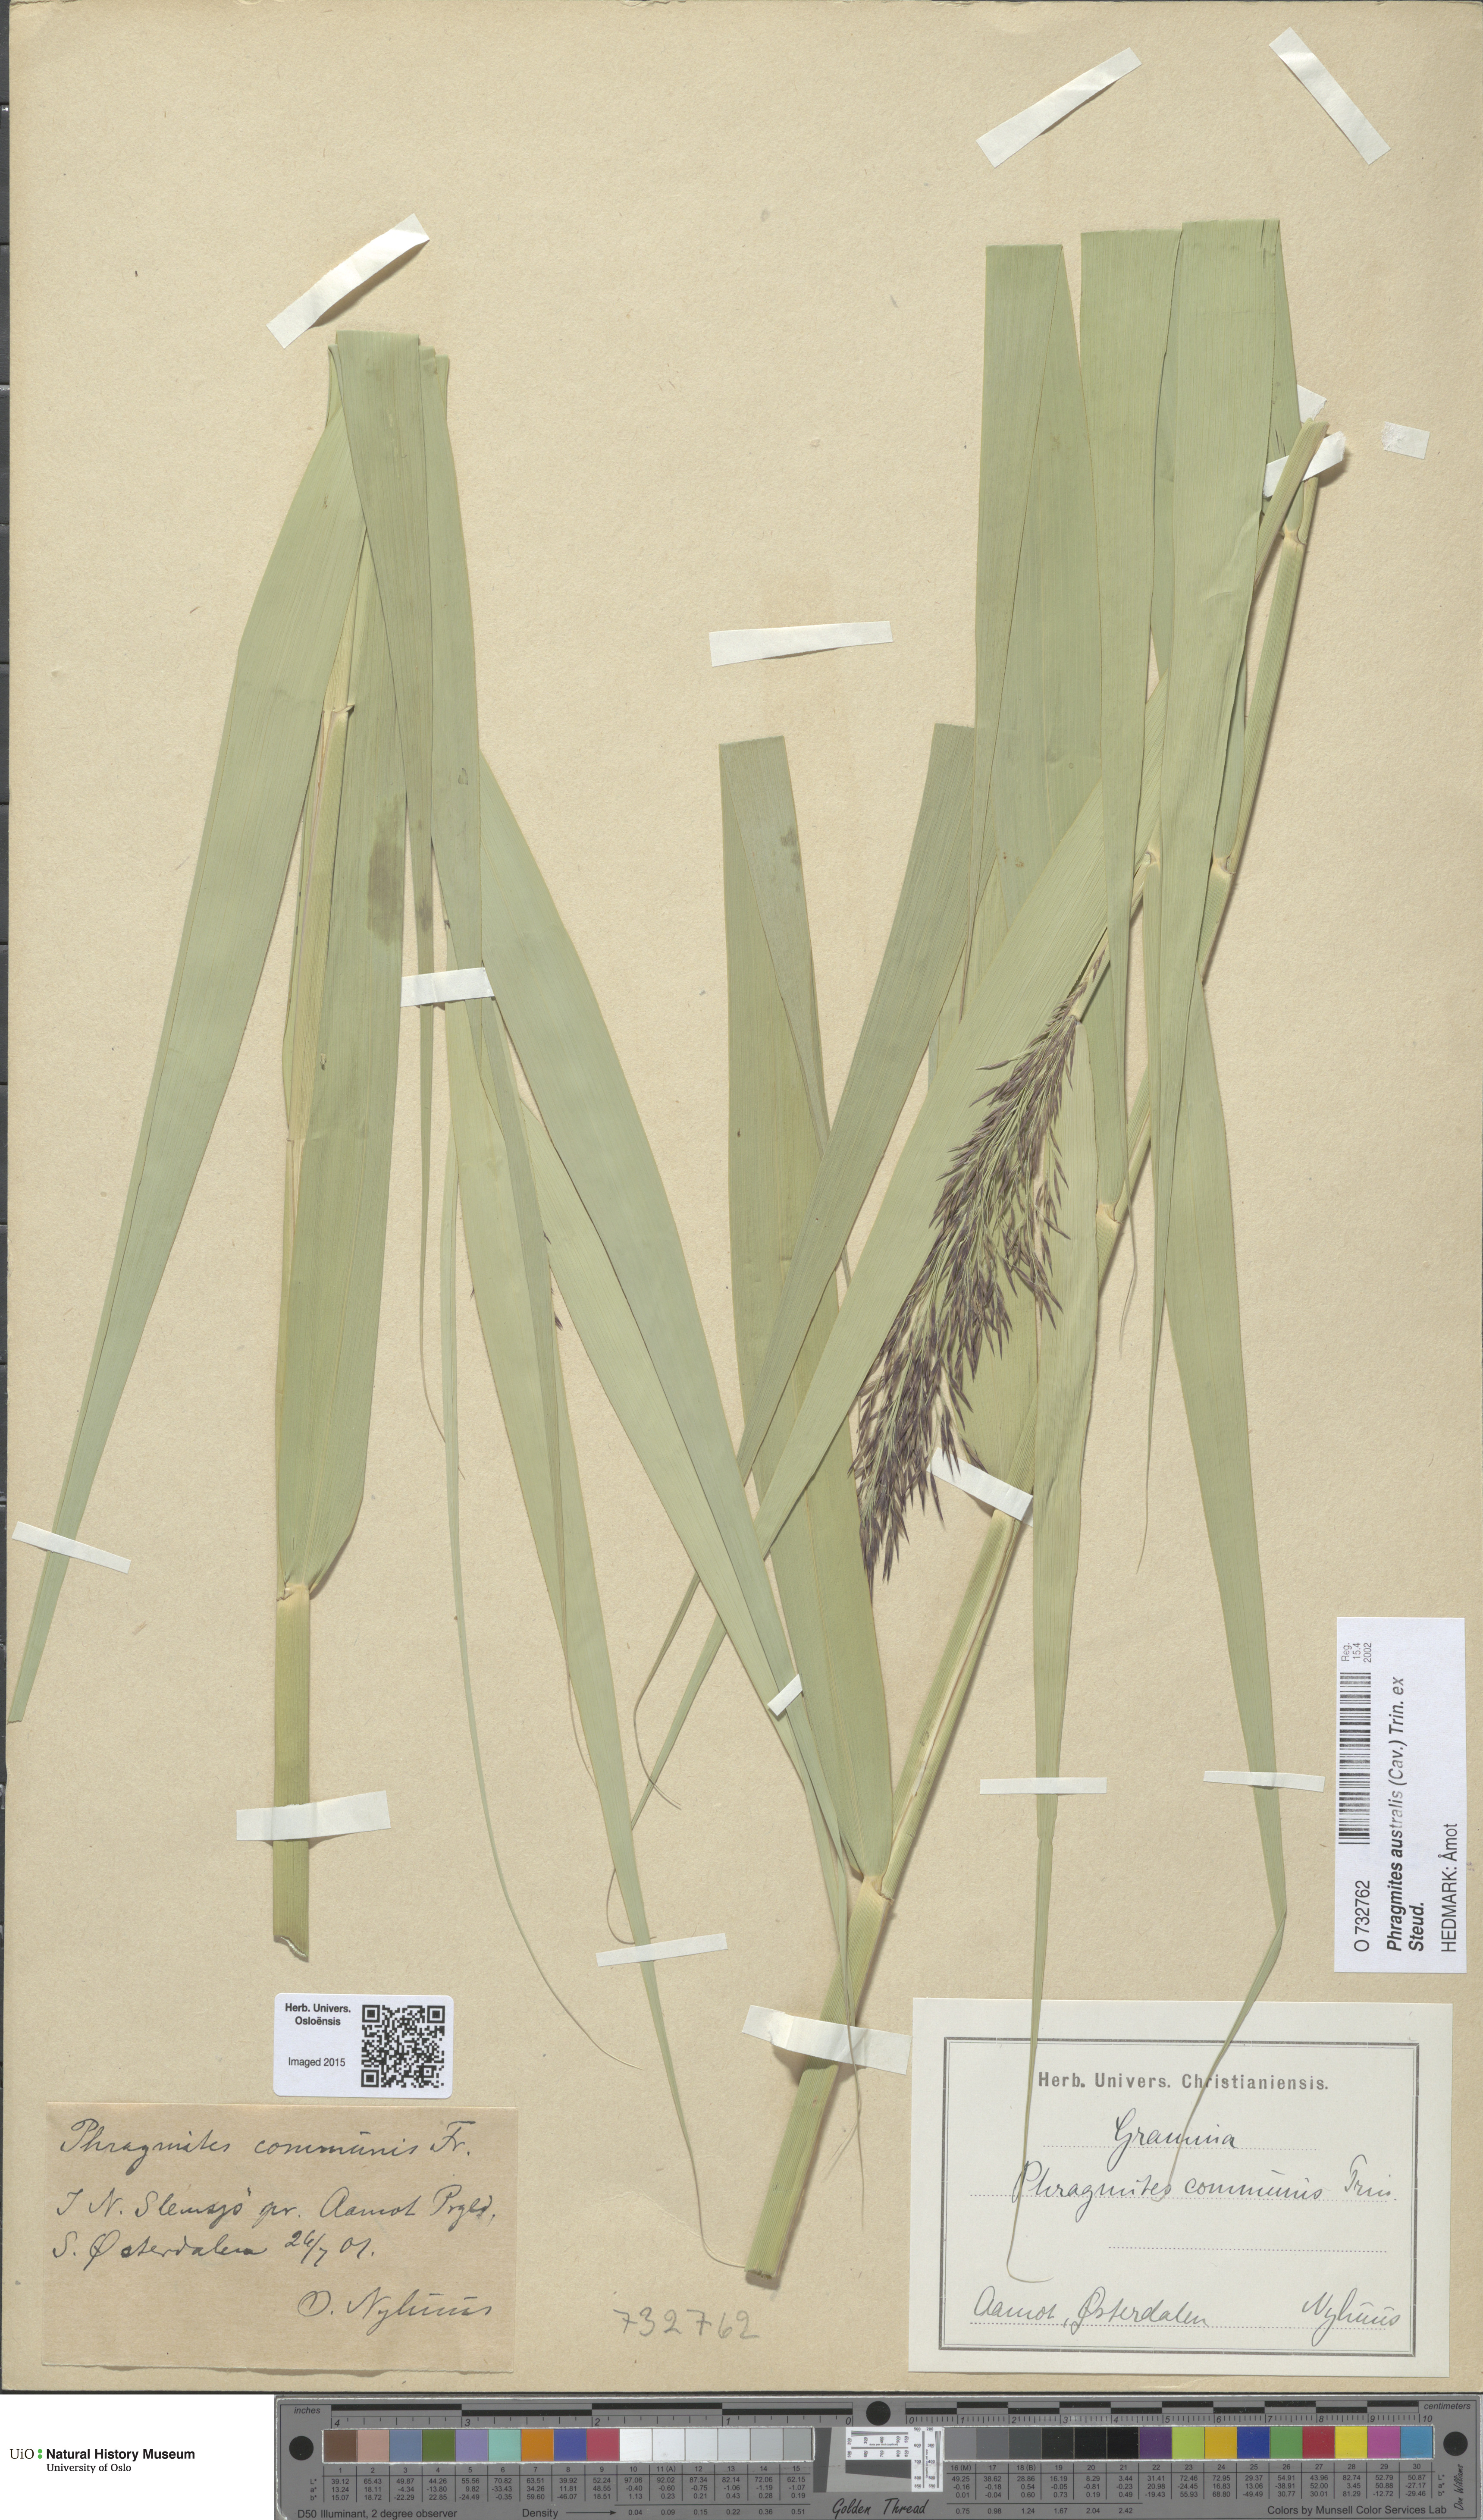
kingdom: Plantae
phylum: Tracheophyta
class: Liliopsida
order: Poales
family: Poaceae
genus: Phragmites
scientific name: Phragmites australis
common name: Common reed
